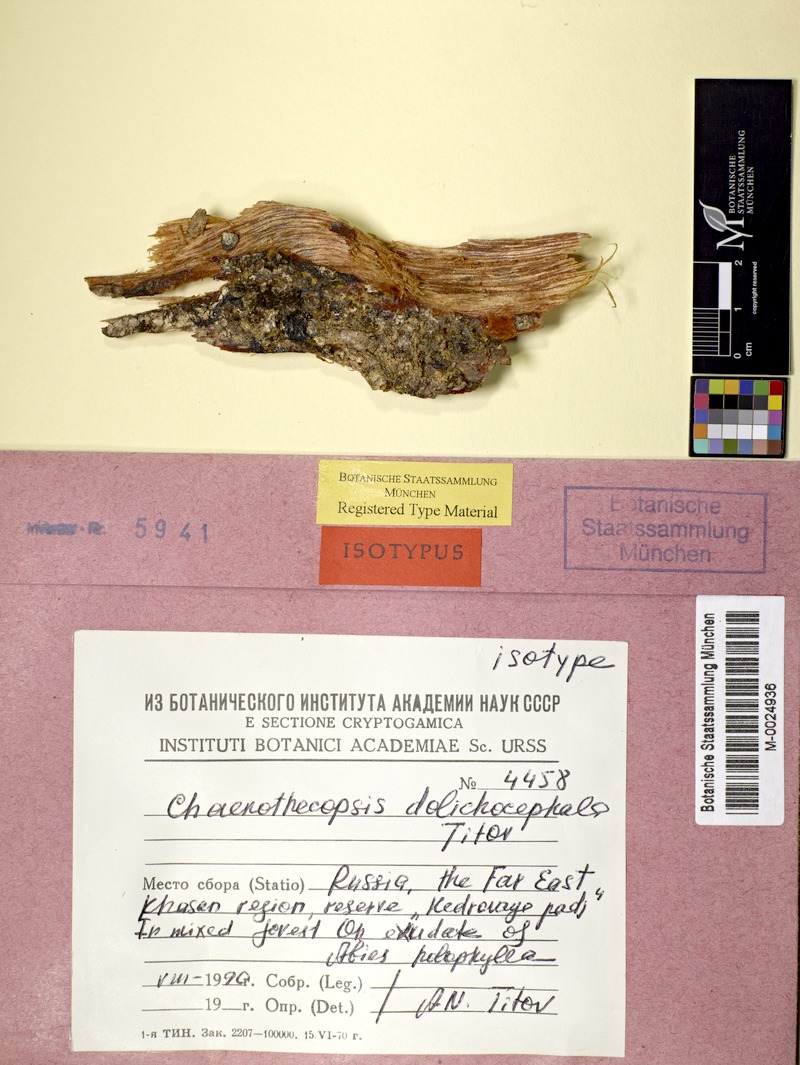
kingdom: Fungi
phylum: Ascomycota
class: Eurotiomycetes
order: Mycocaliciales
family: Mycocaliciaceae
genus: Chaenothecopsis
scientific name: Chaenothecopsis
